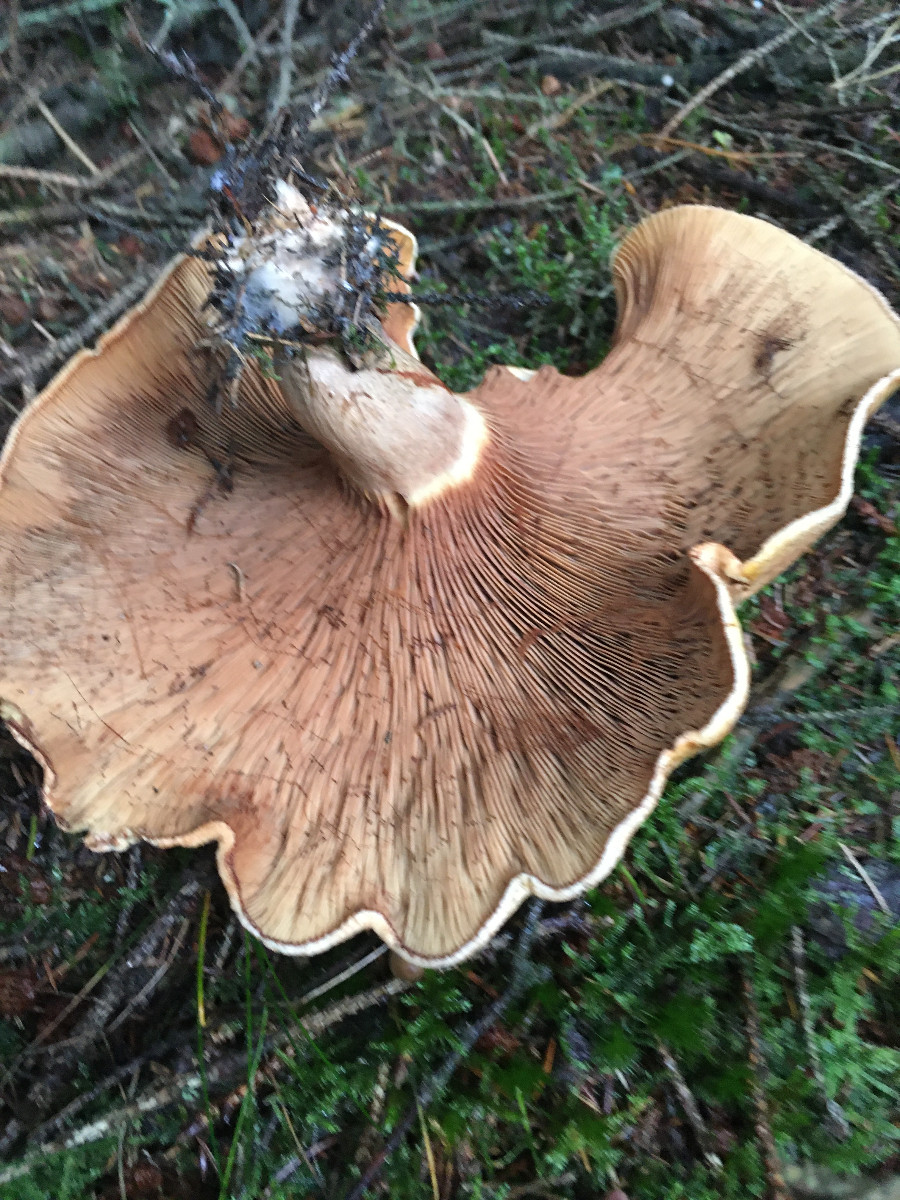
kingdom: Fungi
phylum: Basidiomycota
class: Agaricomycetes
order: Boletales
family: Paxillaceae
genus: Paxillus
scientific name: Paxillus involutus
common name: almindelig netbladhat
